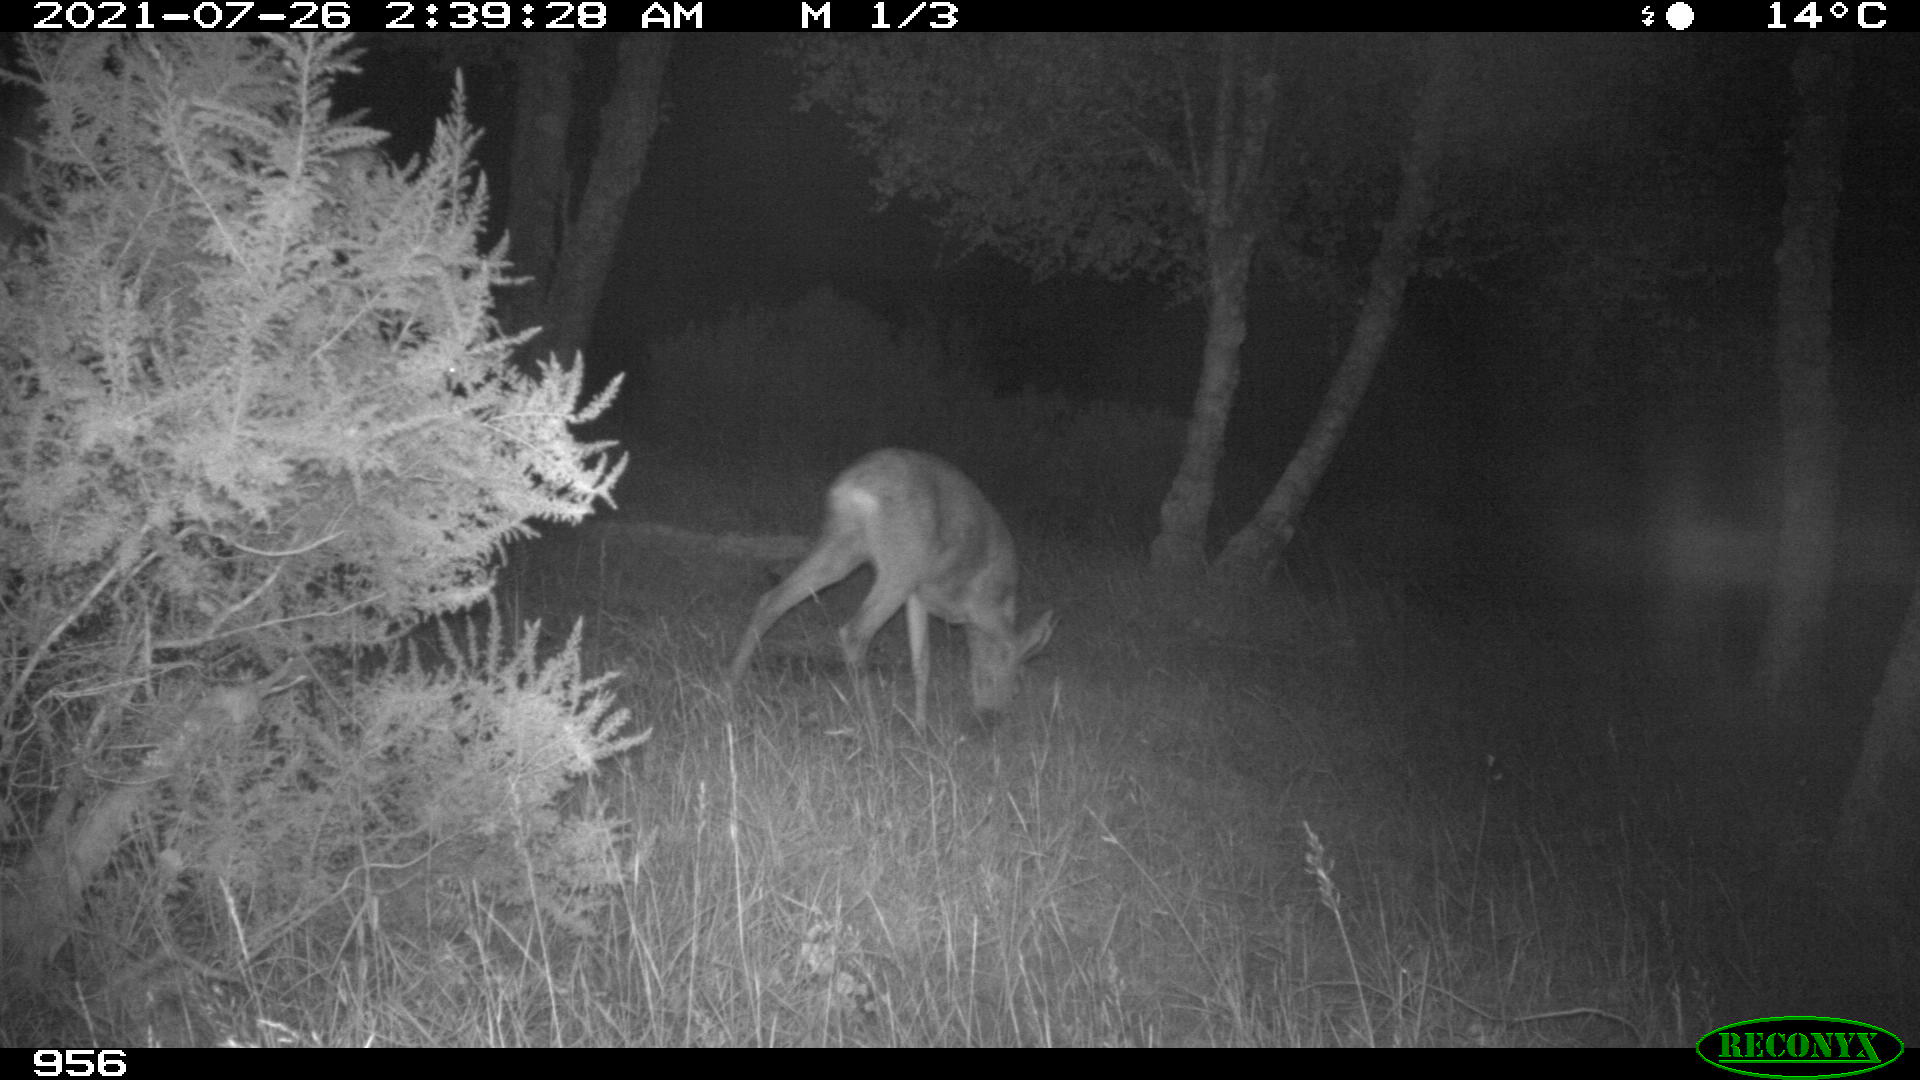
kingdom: Animalia
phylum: Chordata
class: Mammalia
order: Artiodactyla
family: Cervidae
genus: Capreolus
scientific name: Capreolus capreolus
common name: Western roe deer
